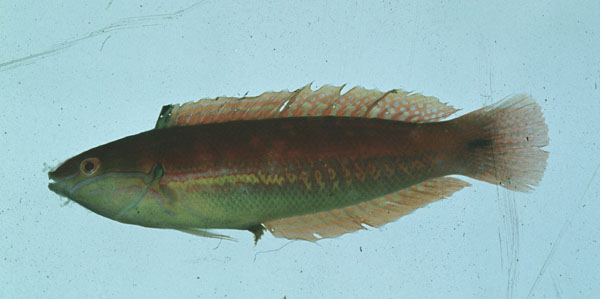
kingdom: Animalia
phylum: Chordata
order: Perciformes
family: Labridae
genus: Coris
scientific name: Coris caudimacula
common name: Spottail coris
